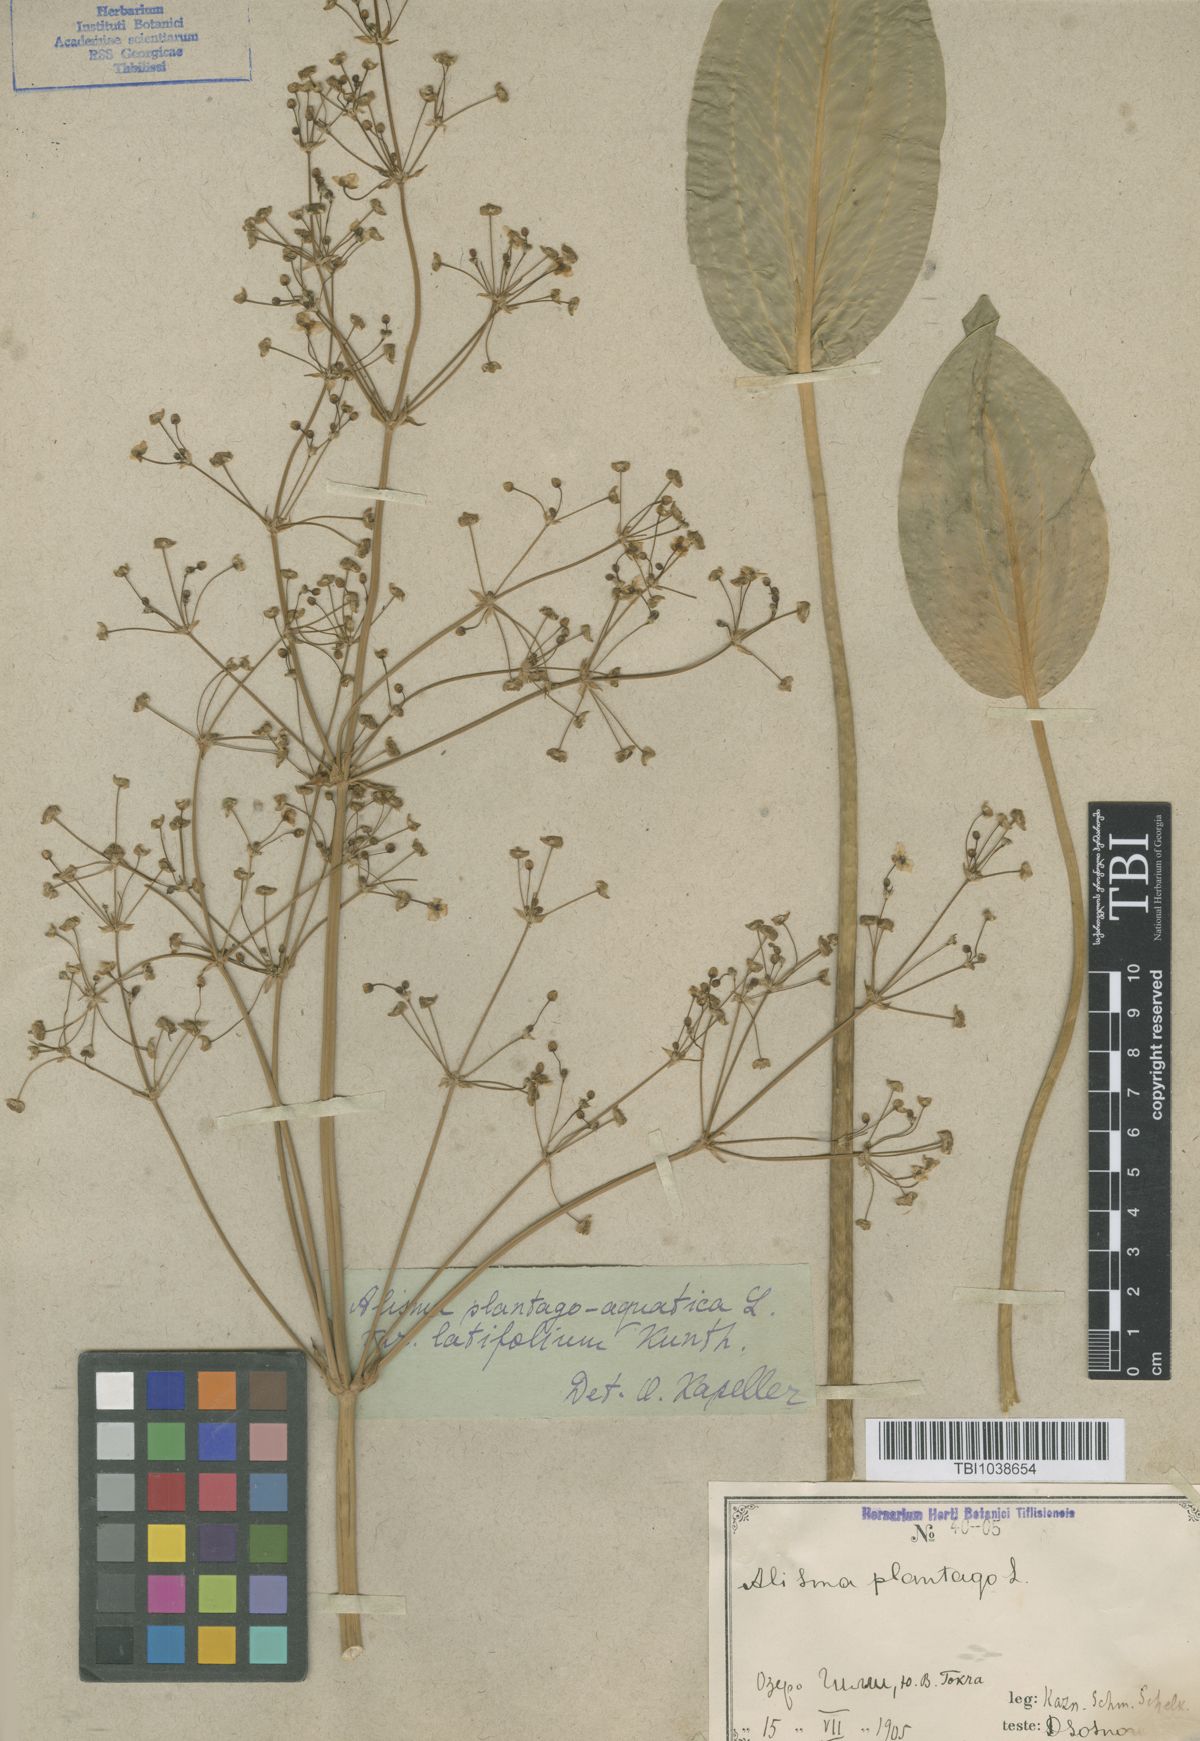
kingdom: Plantae
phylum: Tracheophyta
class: Liliopsida
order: Alismatales
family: Alismataceae
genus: Alisma
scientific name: Alisma plantago-aquatica
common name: Water-plantain
